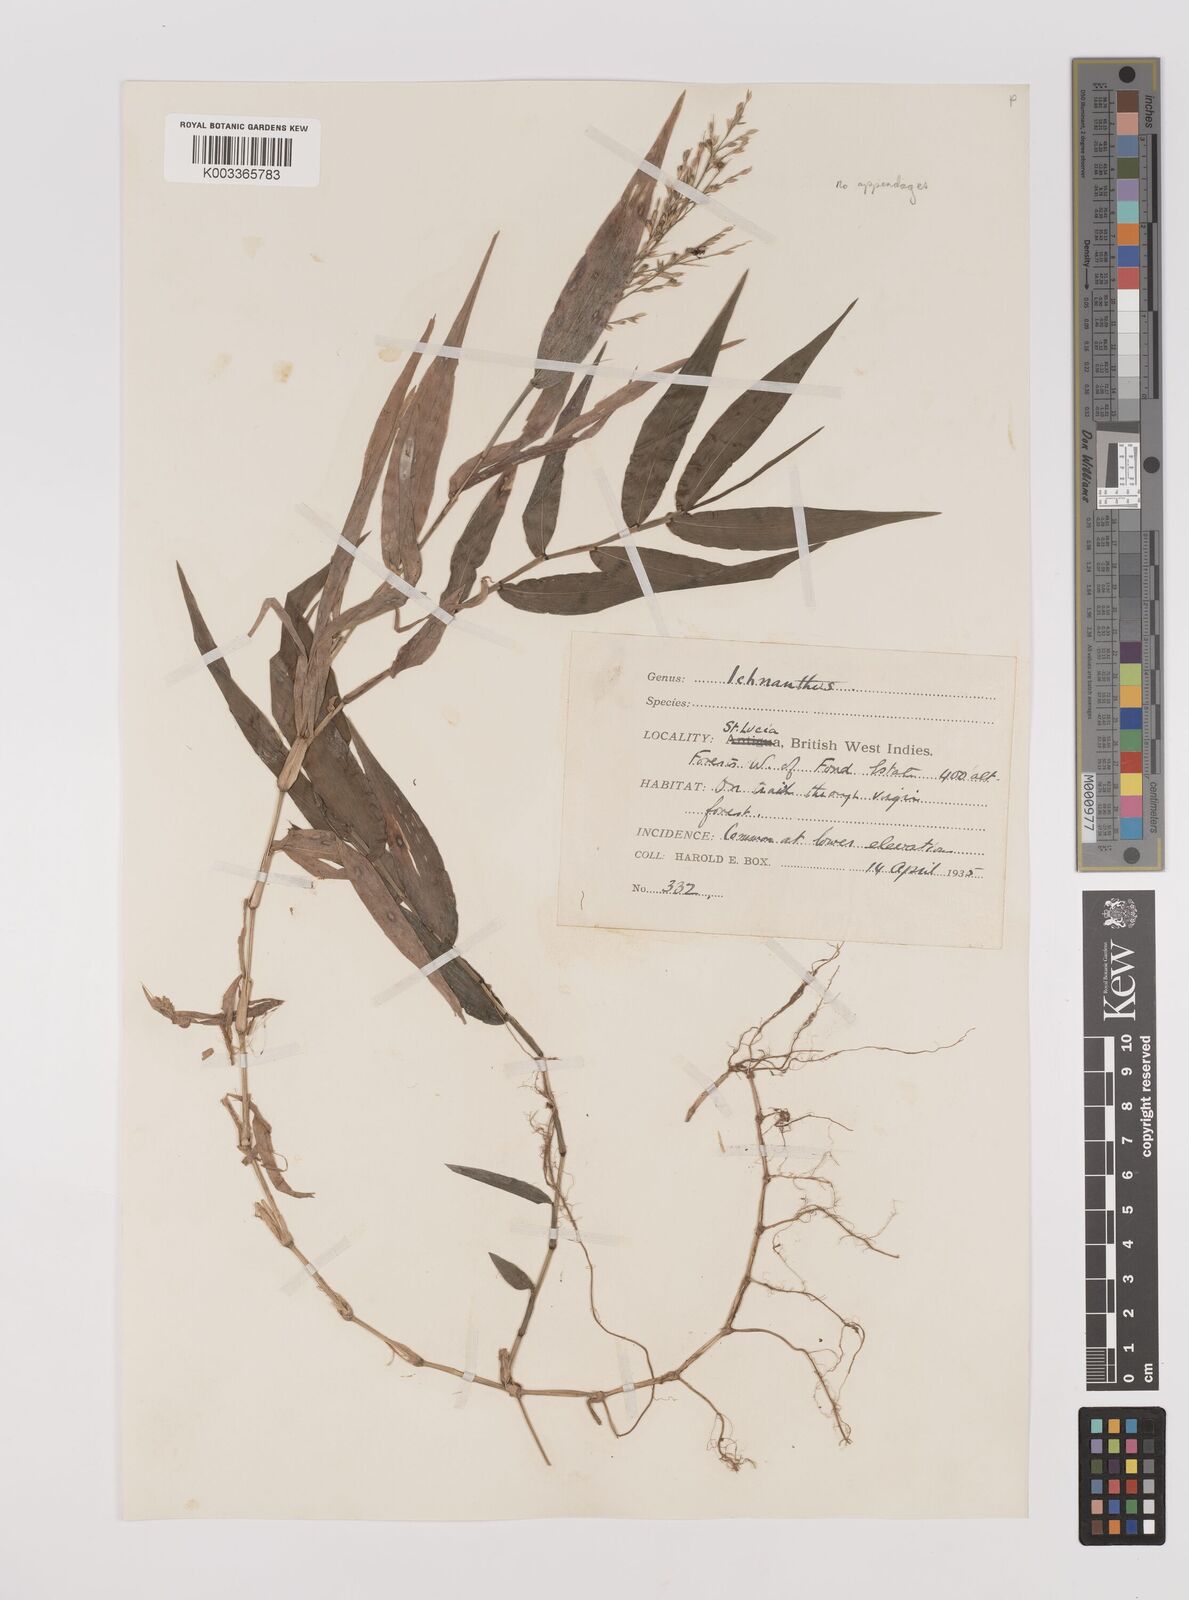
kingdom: Plantae
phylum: Tracheophyta
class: Liliopsida
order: Poales
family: Poaceae
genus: Ichnanthus
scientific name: Ichnanthus pallens
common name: Water grass
